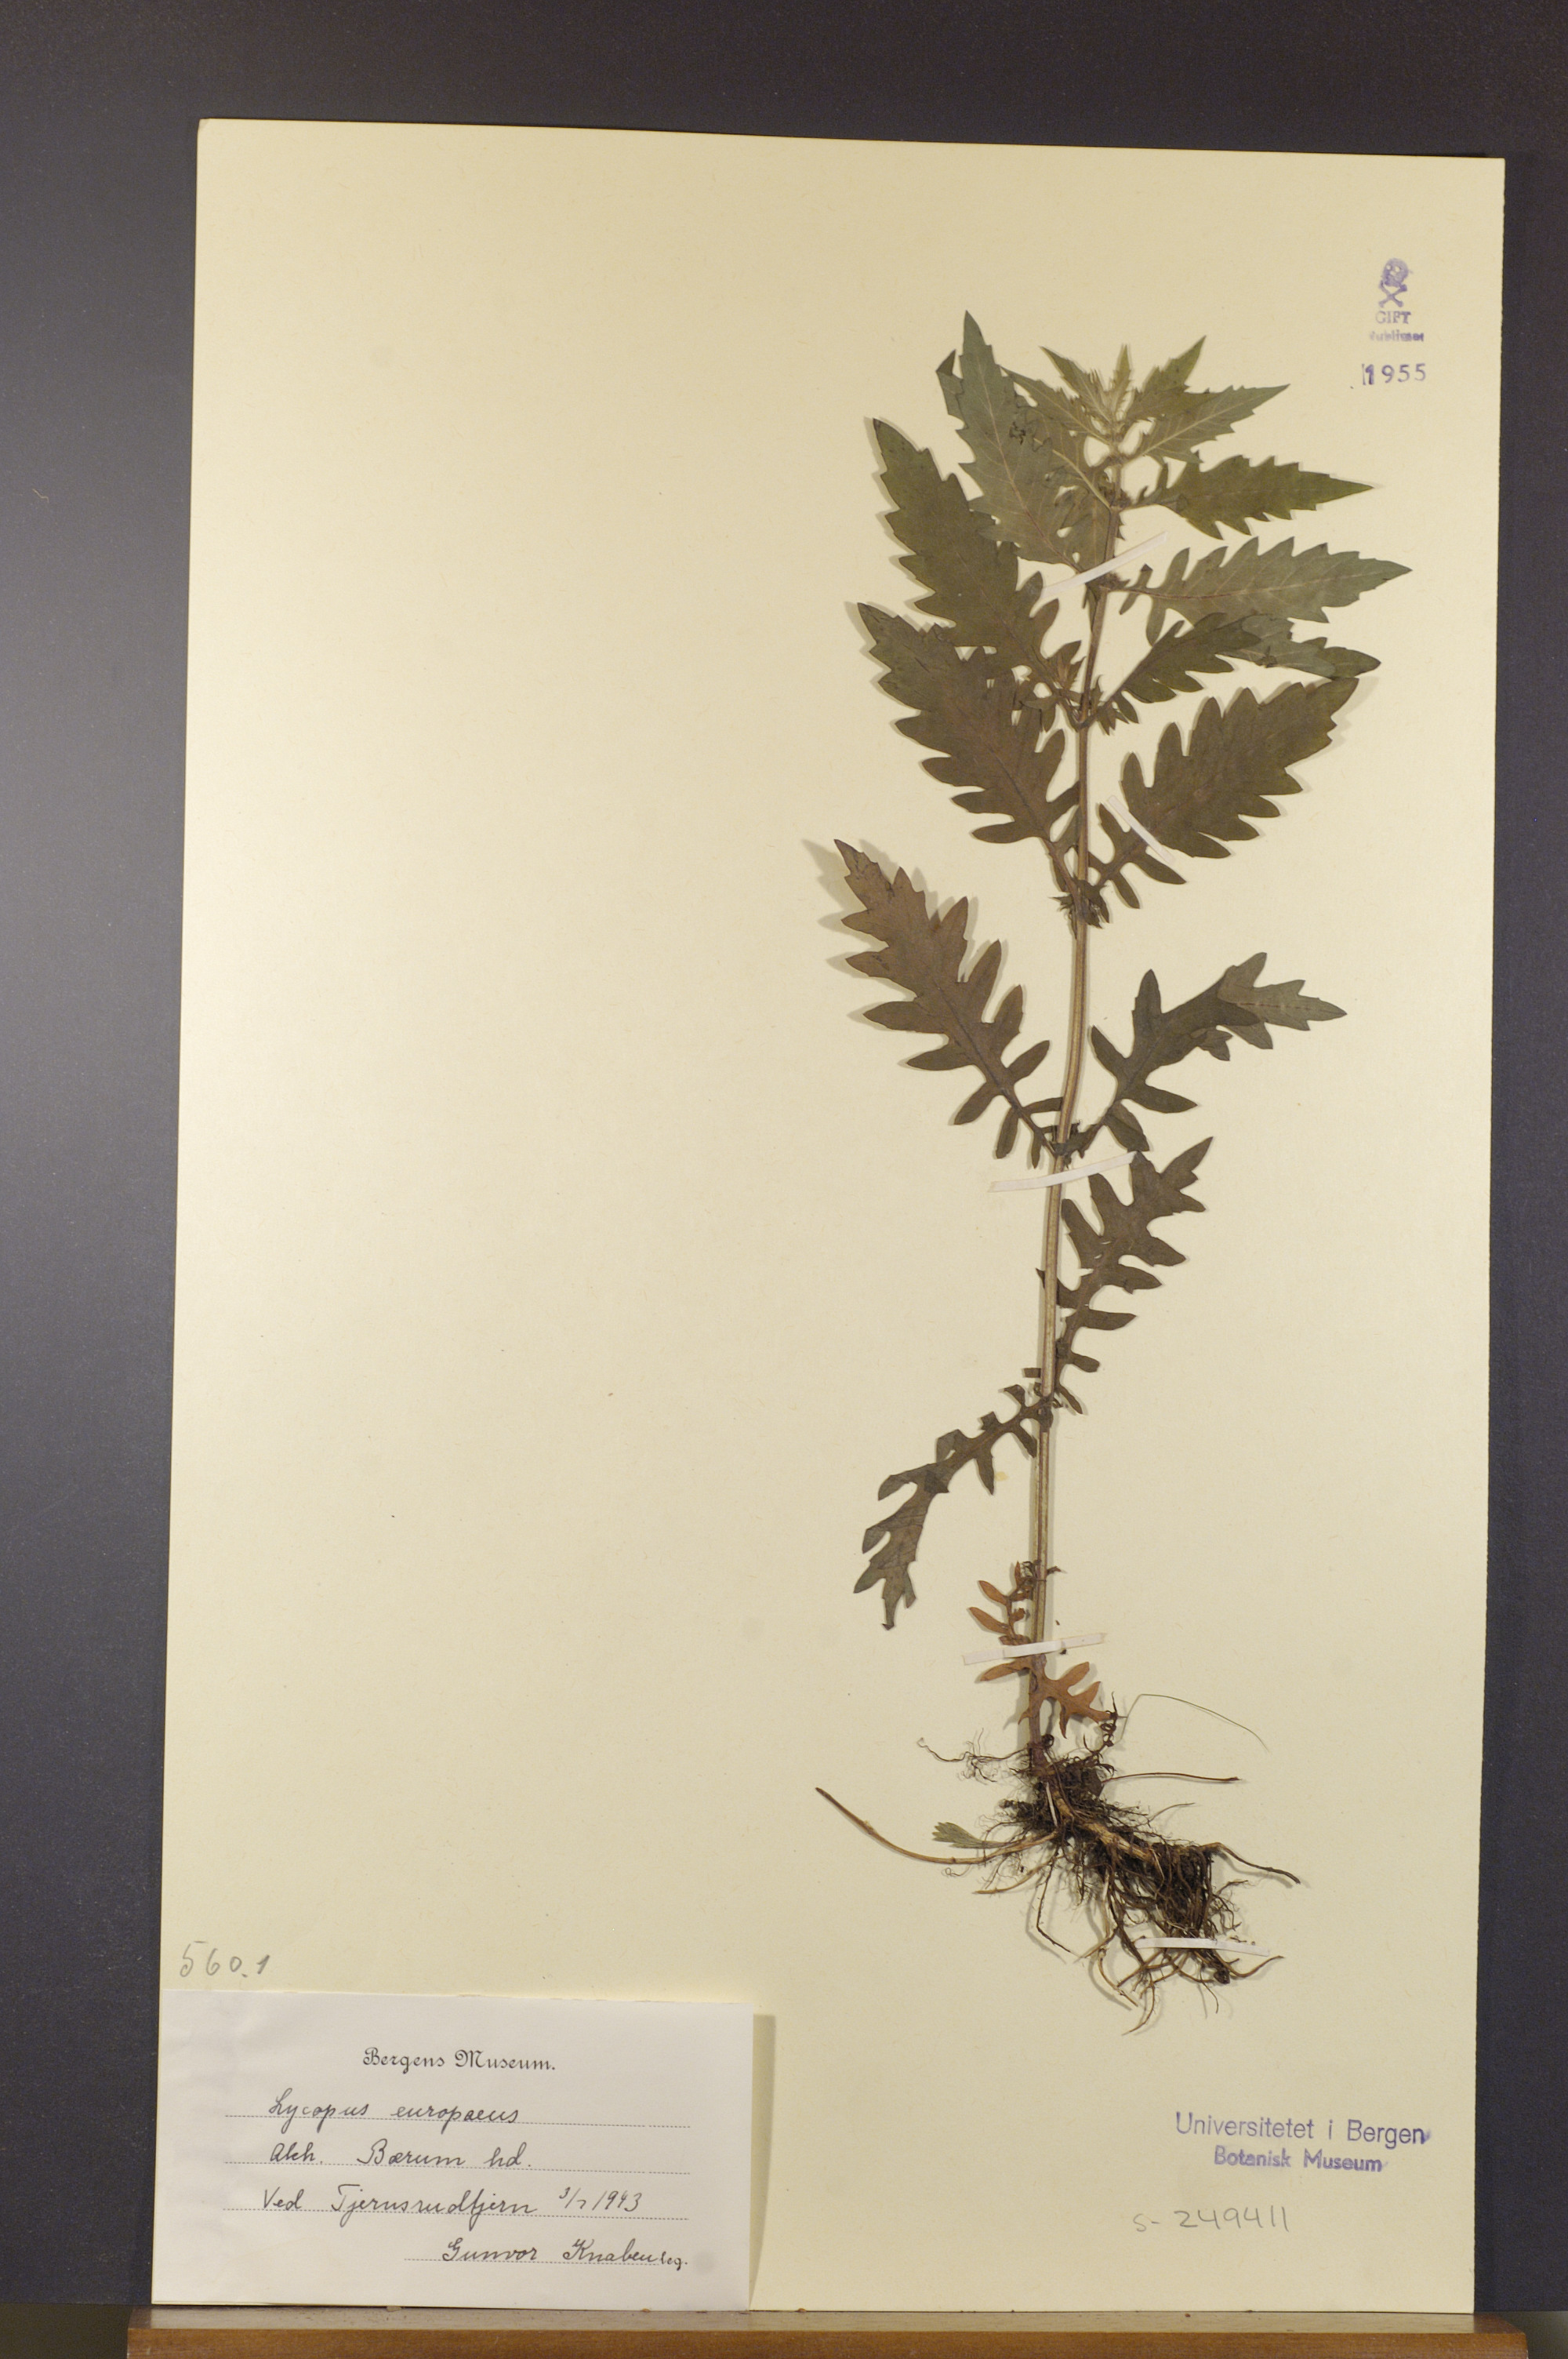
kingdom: Plantae
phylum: Tracheophyta
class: Magnoliopsida
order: Lamiales
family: Lamiaceae
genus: Lycopus
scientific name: Lycopus europaeus
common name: European bugleweed
